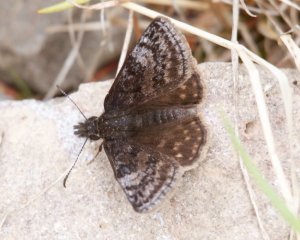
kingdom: Animalia
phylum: Arthropoda
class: Insecta
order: Lepidoptera
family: Hesperiidae
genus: Erynnis
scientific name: Erynnis icelus
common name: Dreamy Duskywing
